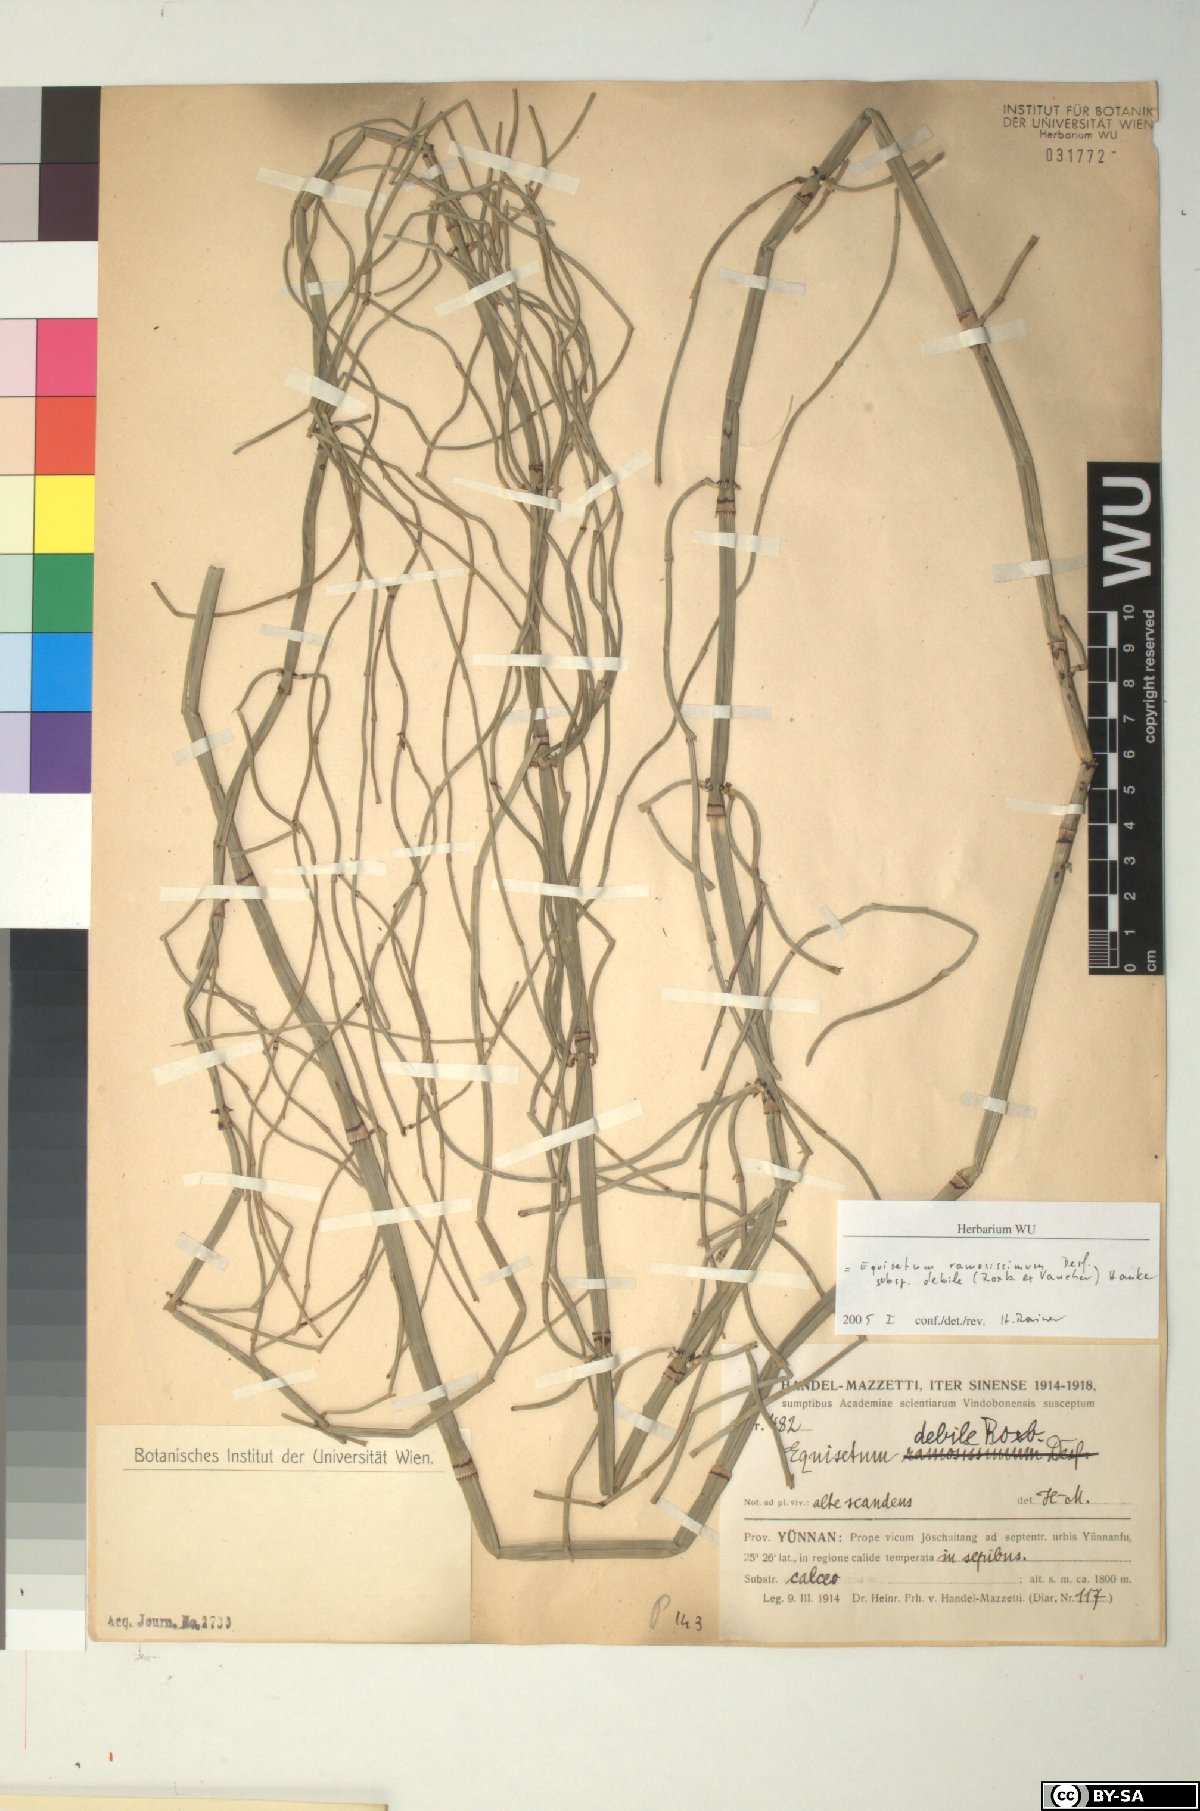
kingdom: Plantae
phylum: Tracheophyta
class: Polypodiopsida
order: Equisetales
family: Equisetaceae
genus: Equisetum
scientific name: Equisetum ramosissimum
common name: Branched horsetail
